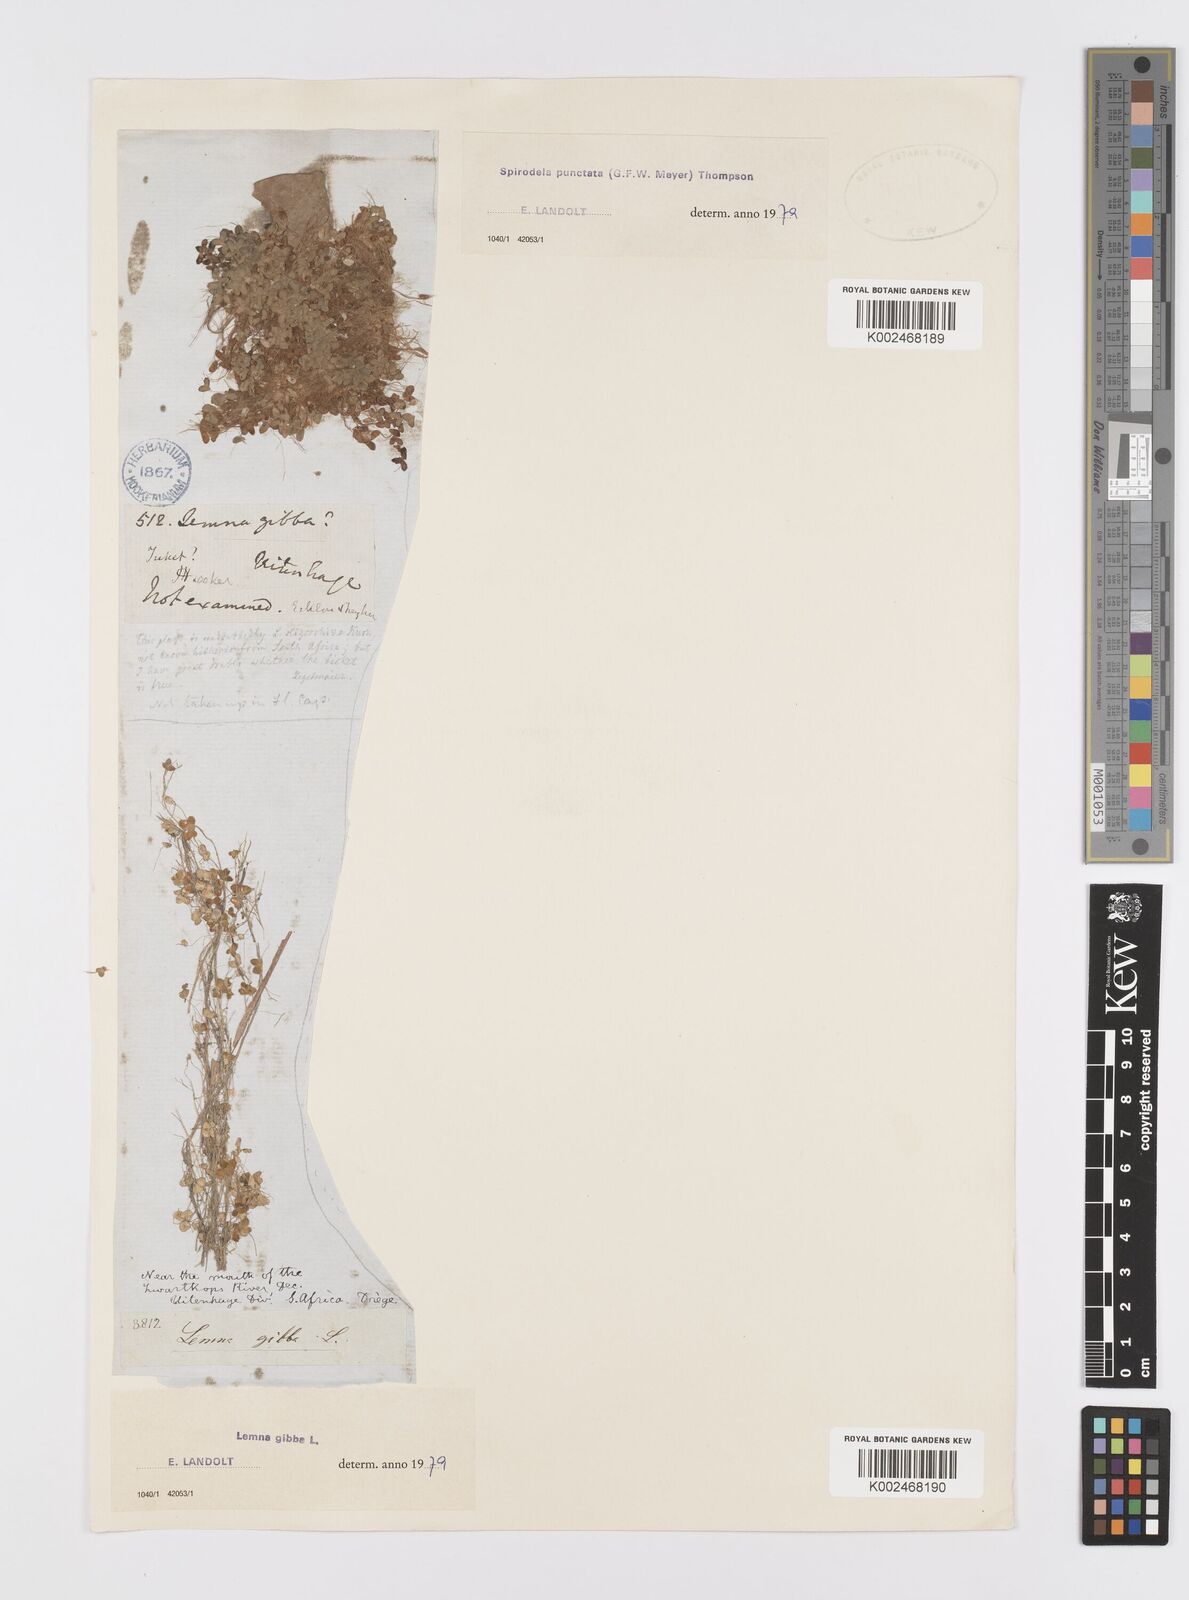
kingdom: Plantae
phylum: Tracheophyta
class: Liliopsida
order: Alismatales
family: Araceae
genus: Lemna
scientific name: Lemna gibba
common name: Fat duckweed
